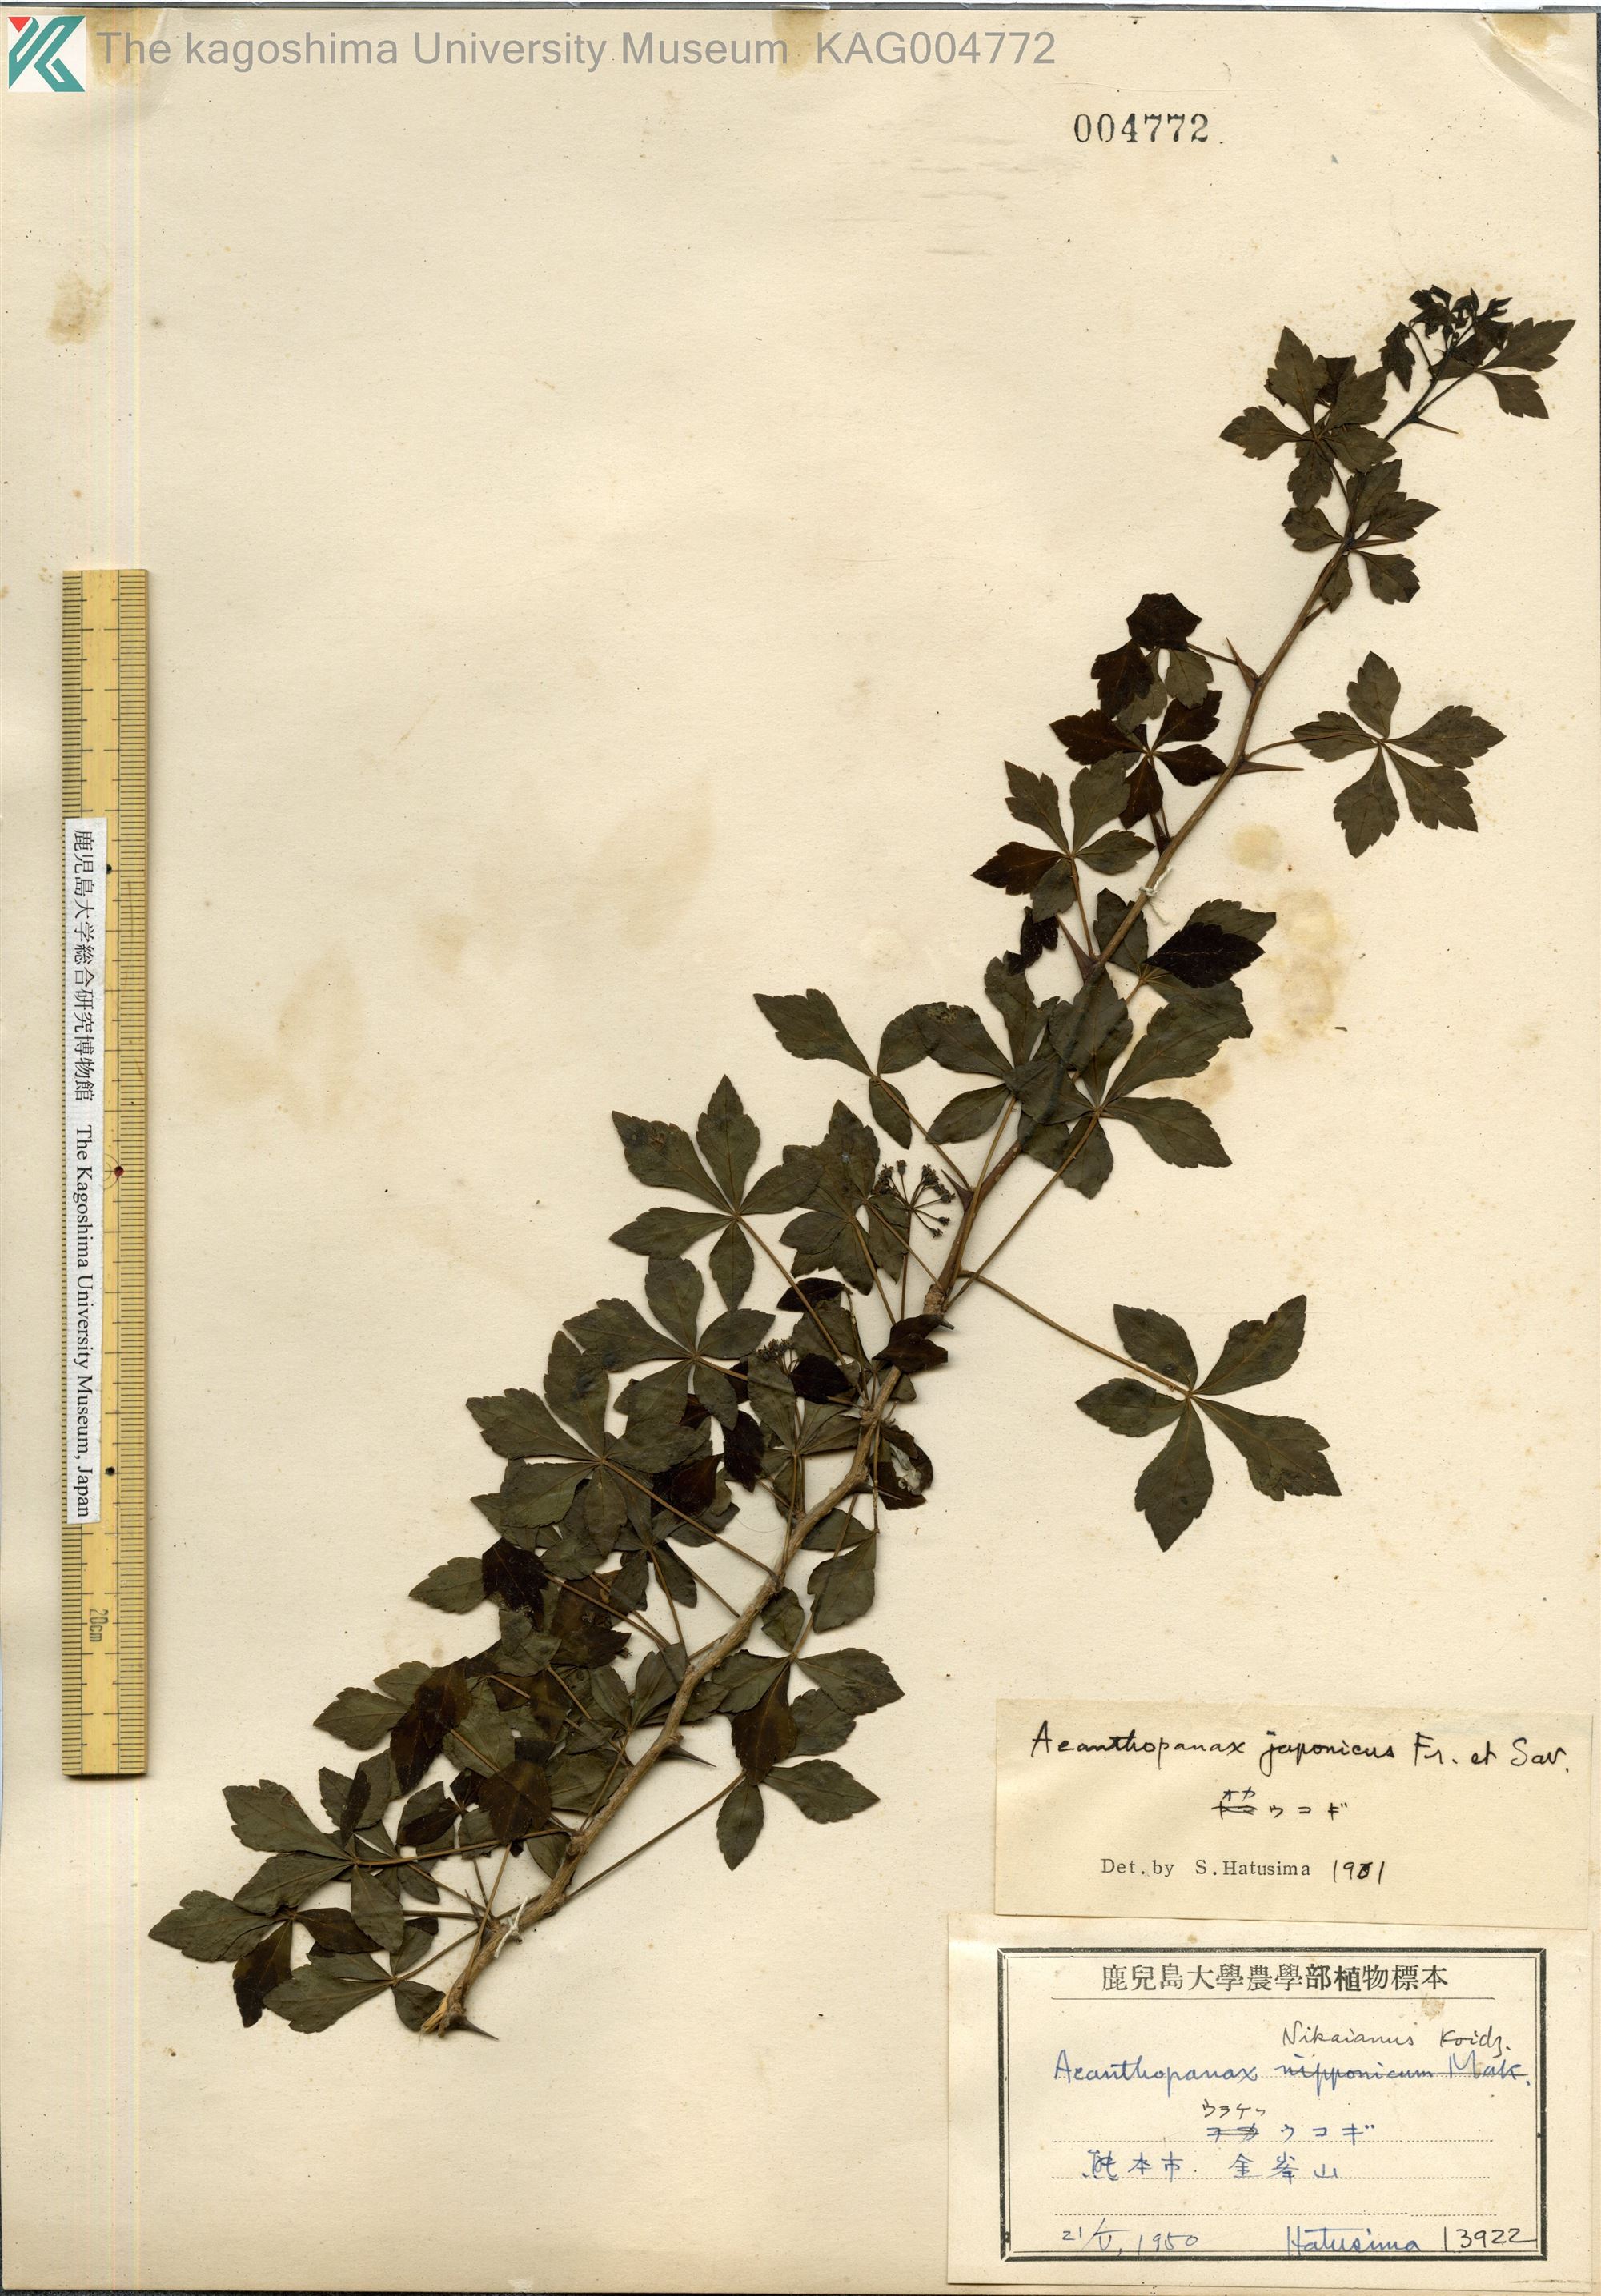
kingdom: Plantae
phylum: Tracheophyta
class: Magnoliopsida
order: Apiales
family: Araliaceae
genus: Eleutherococcus
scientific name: Eleutherococcus japonicus
